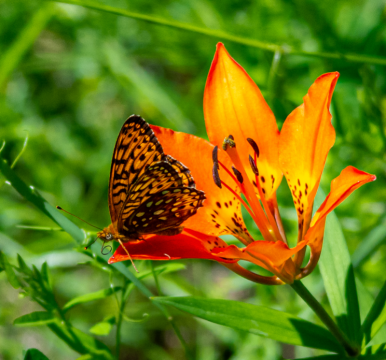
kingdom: Animalia
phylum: Arthropoda
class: Insecta
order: Lepidoptera
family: Nymphalidae
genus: Speyeria
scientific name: Speyeria atlantis
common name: Atlantis Fritillary
